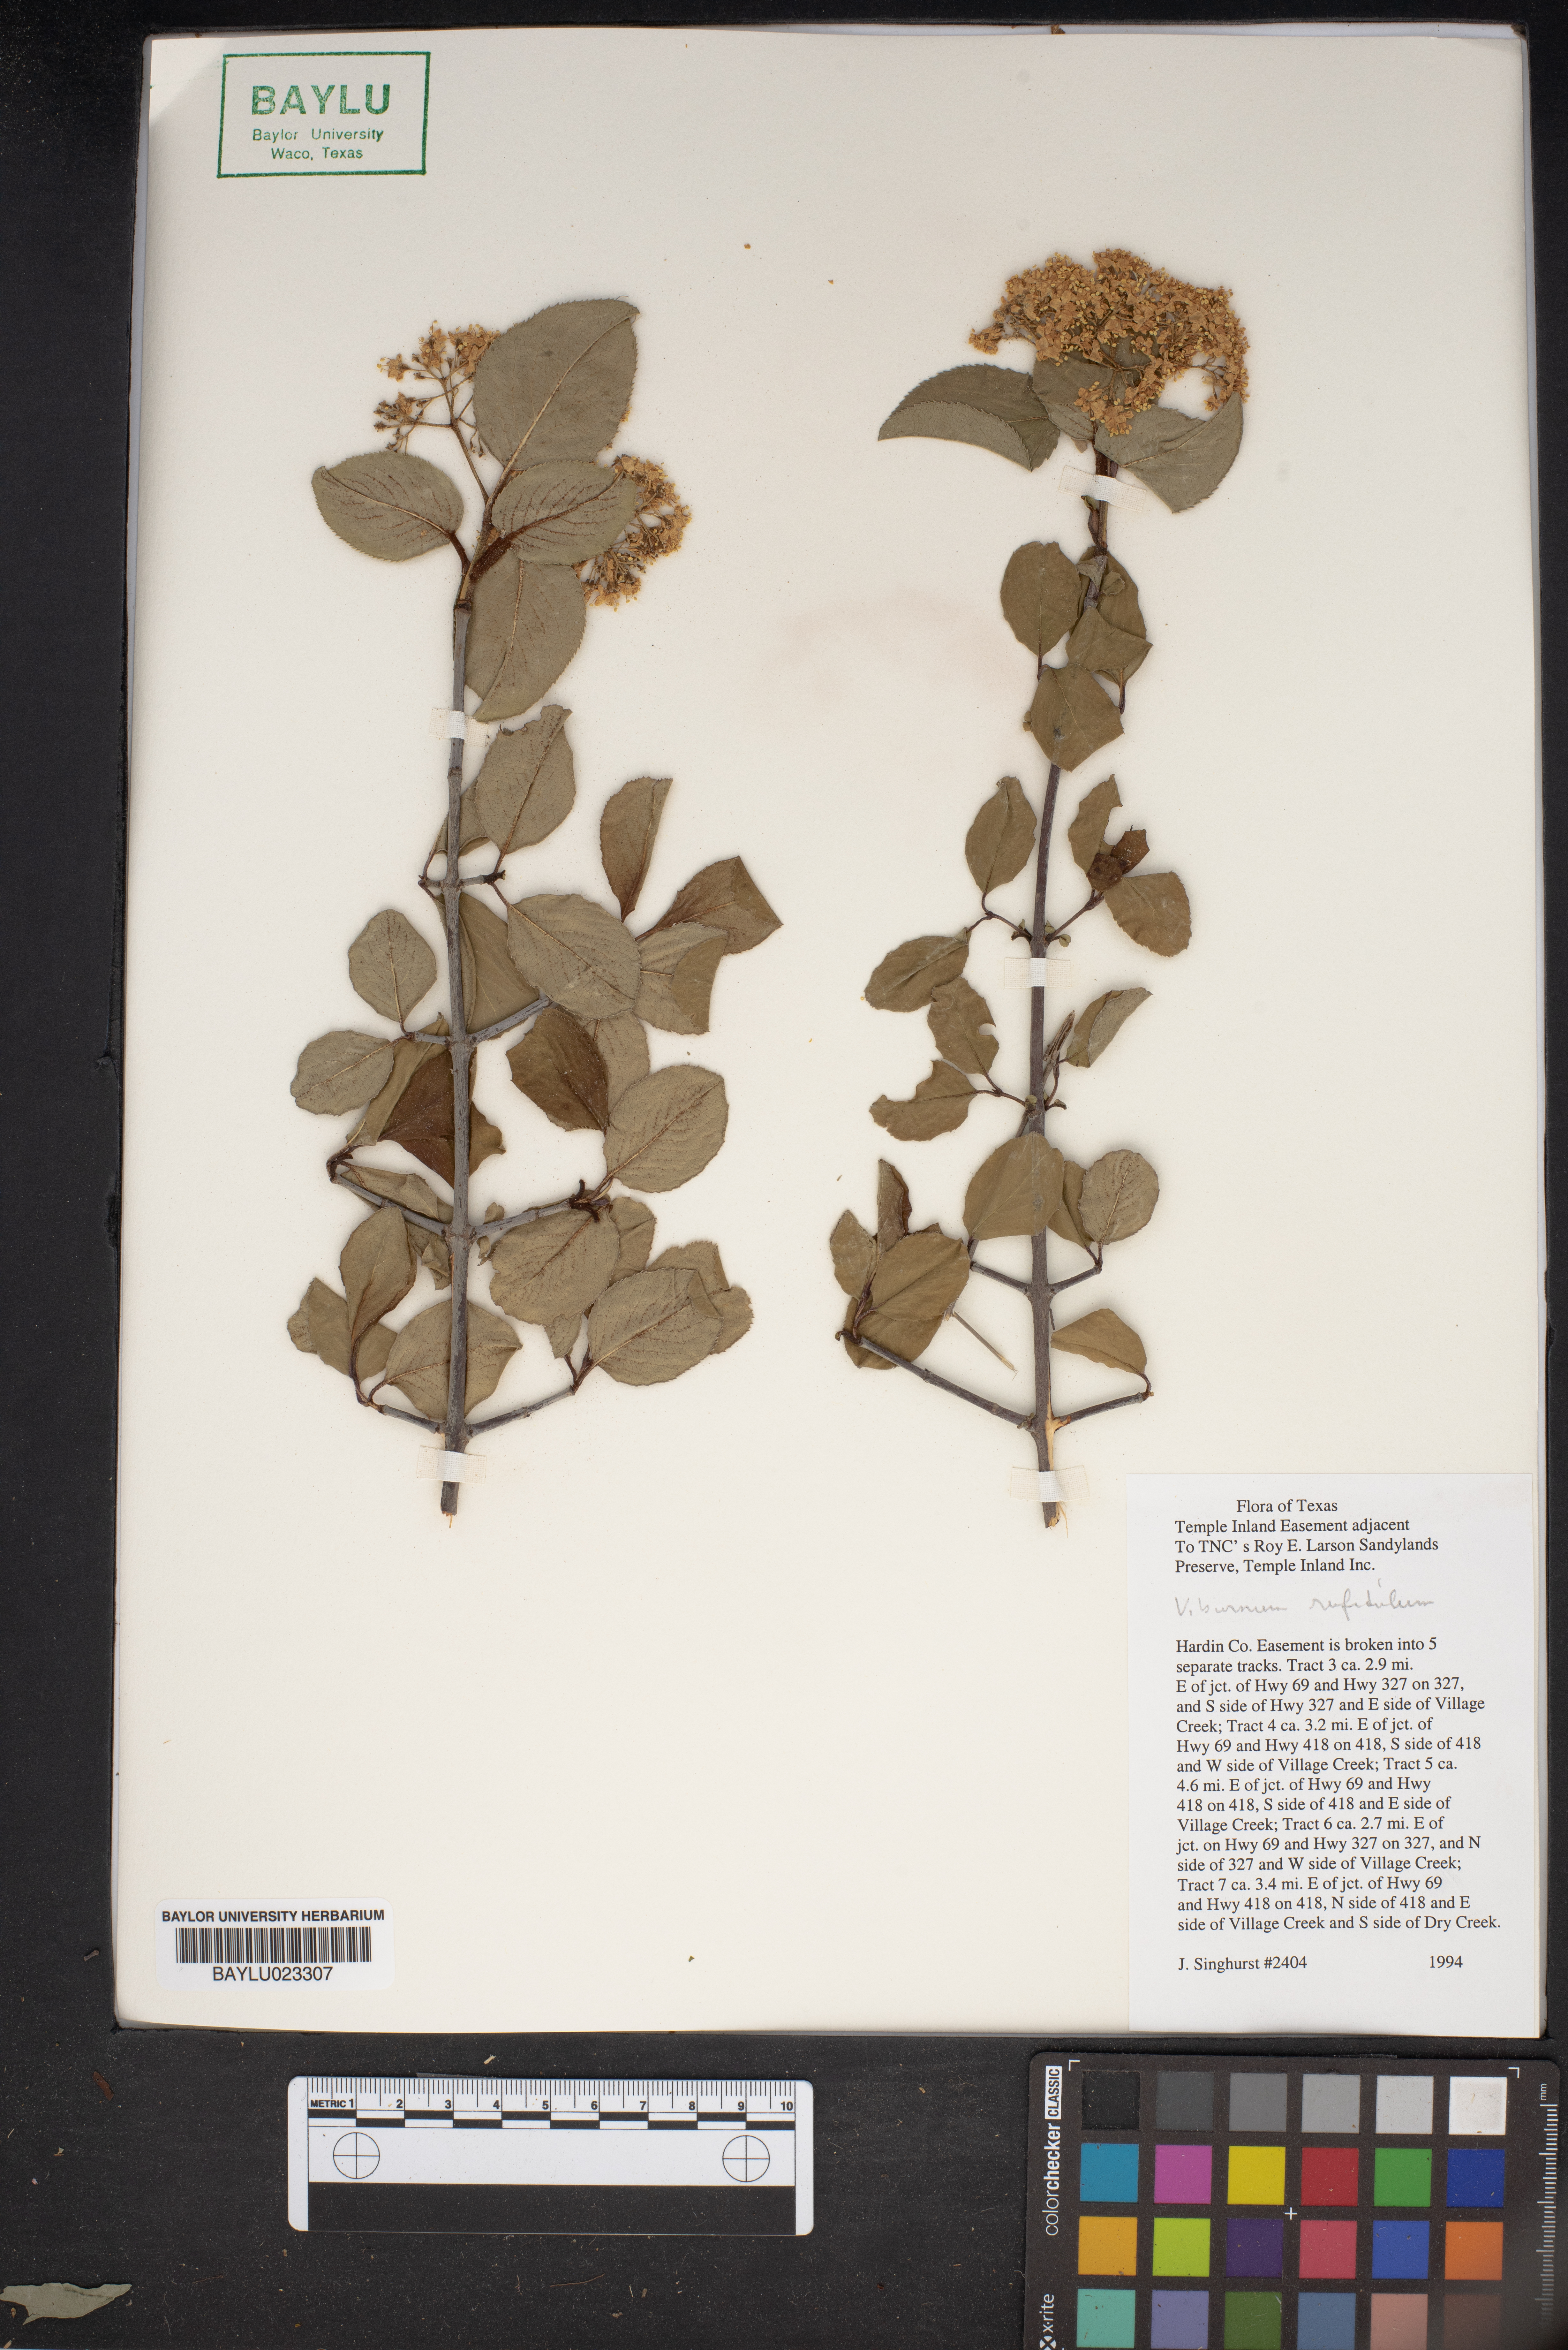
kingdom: Plantae
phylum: Tracheophyta
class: Magnoliopsida
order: Dipsacales
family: Viburnaceae
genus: Viburnum
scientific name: Viburnum rufidulum
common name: Blue haw
